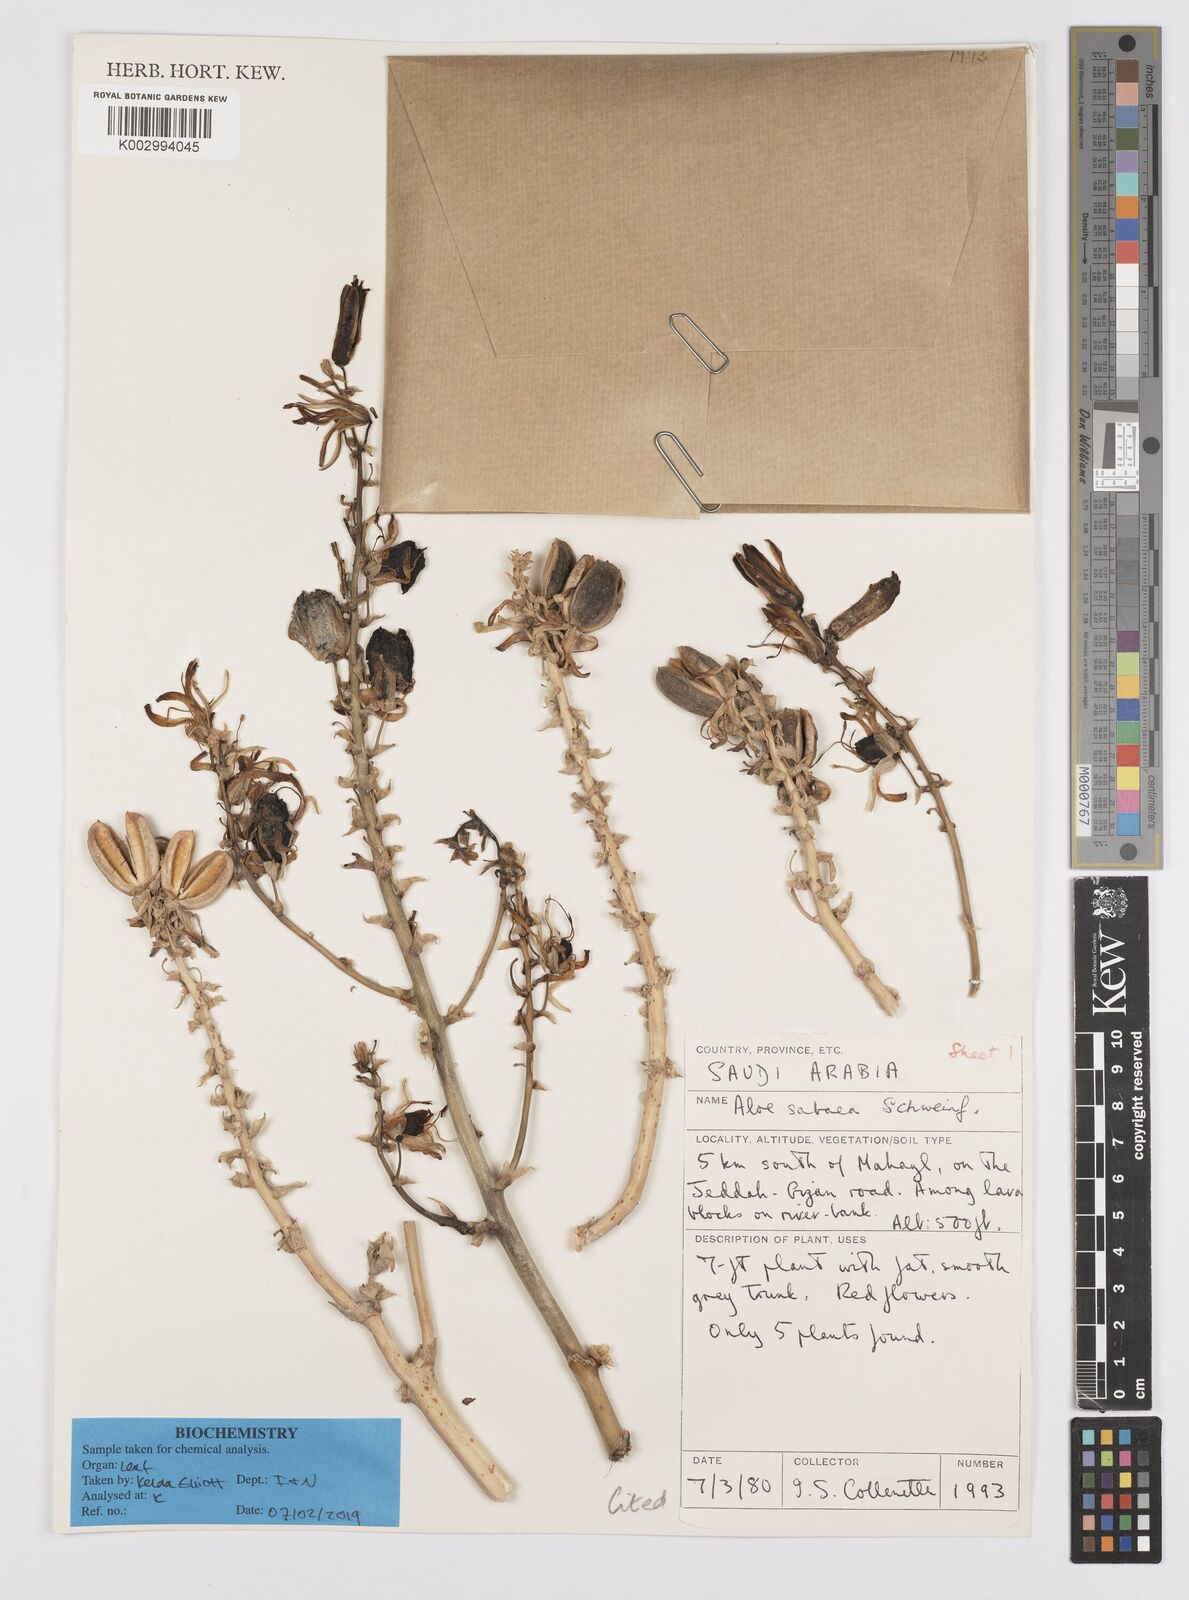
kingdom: Plantae
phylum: Tracheophyta
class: Liliopsida
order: Asparagales
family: Asphodelaceae
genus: Aloidendron
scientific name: Aloidendron sabaeum
